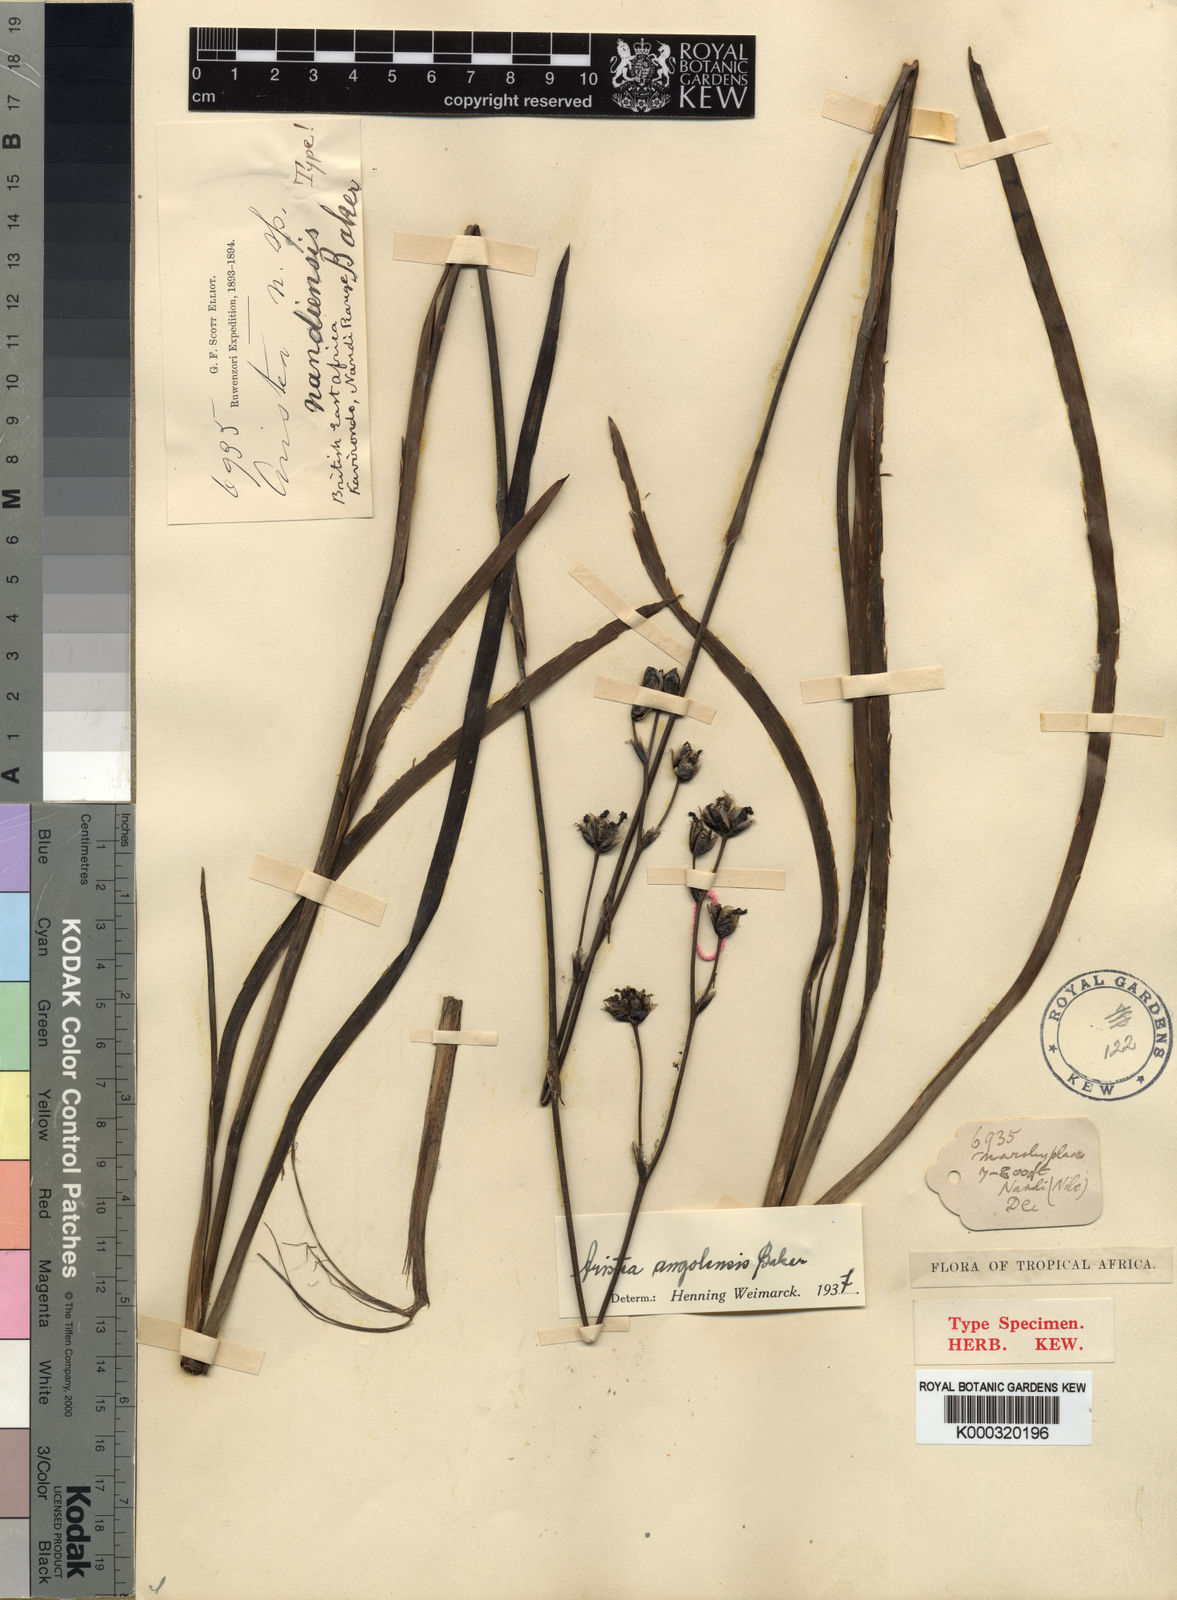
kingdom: Plantae
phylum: Tracheophyta
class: Liliopsida
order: Asparagales
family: Iridaceae
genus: Aristea
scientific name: Aristea angolensis
